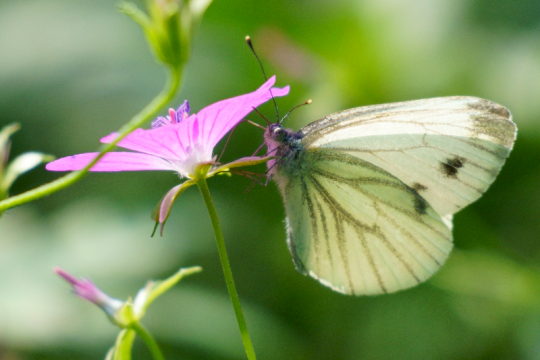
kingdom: Animalia
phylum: Arthropoda
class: Insecta
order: Lepidoptera
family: Pieridae
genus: Pieris
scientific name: Pieris napi
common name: Green-veined White
